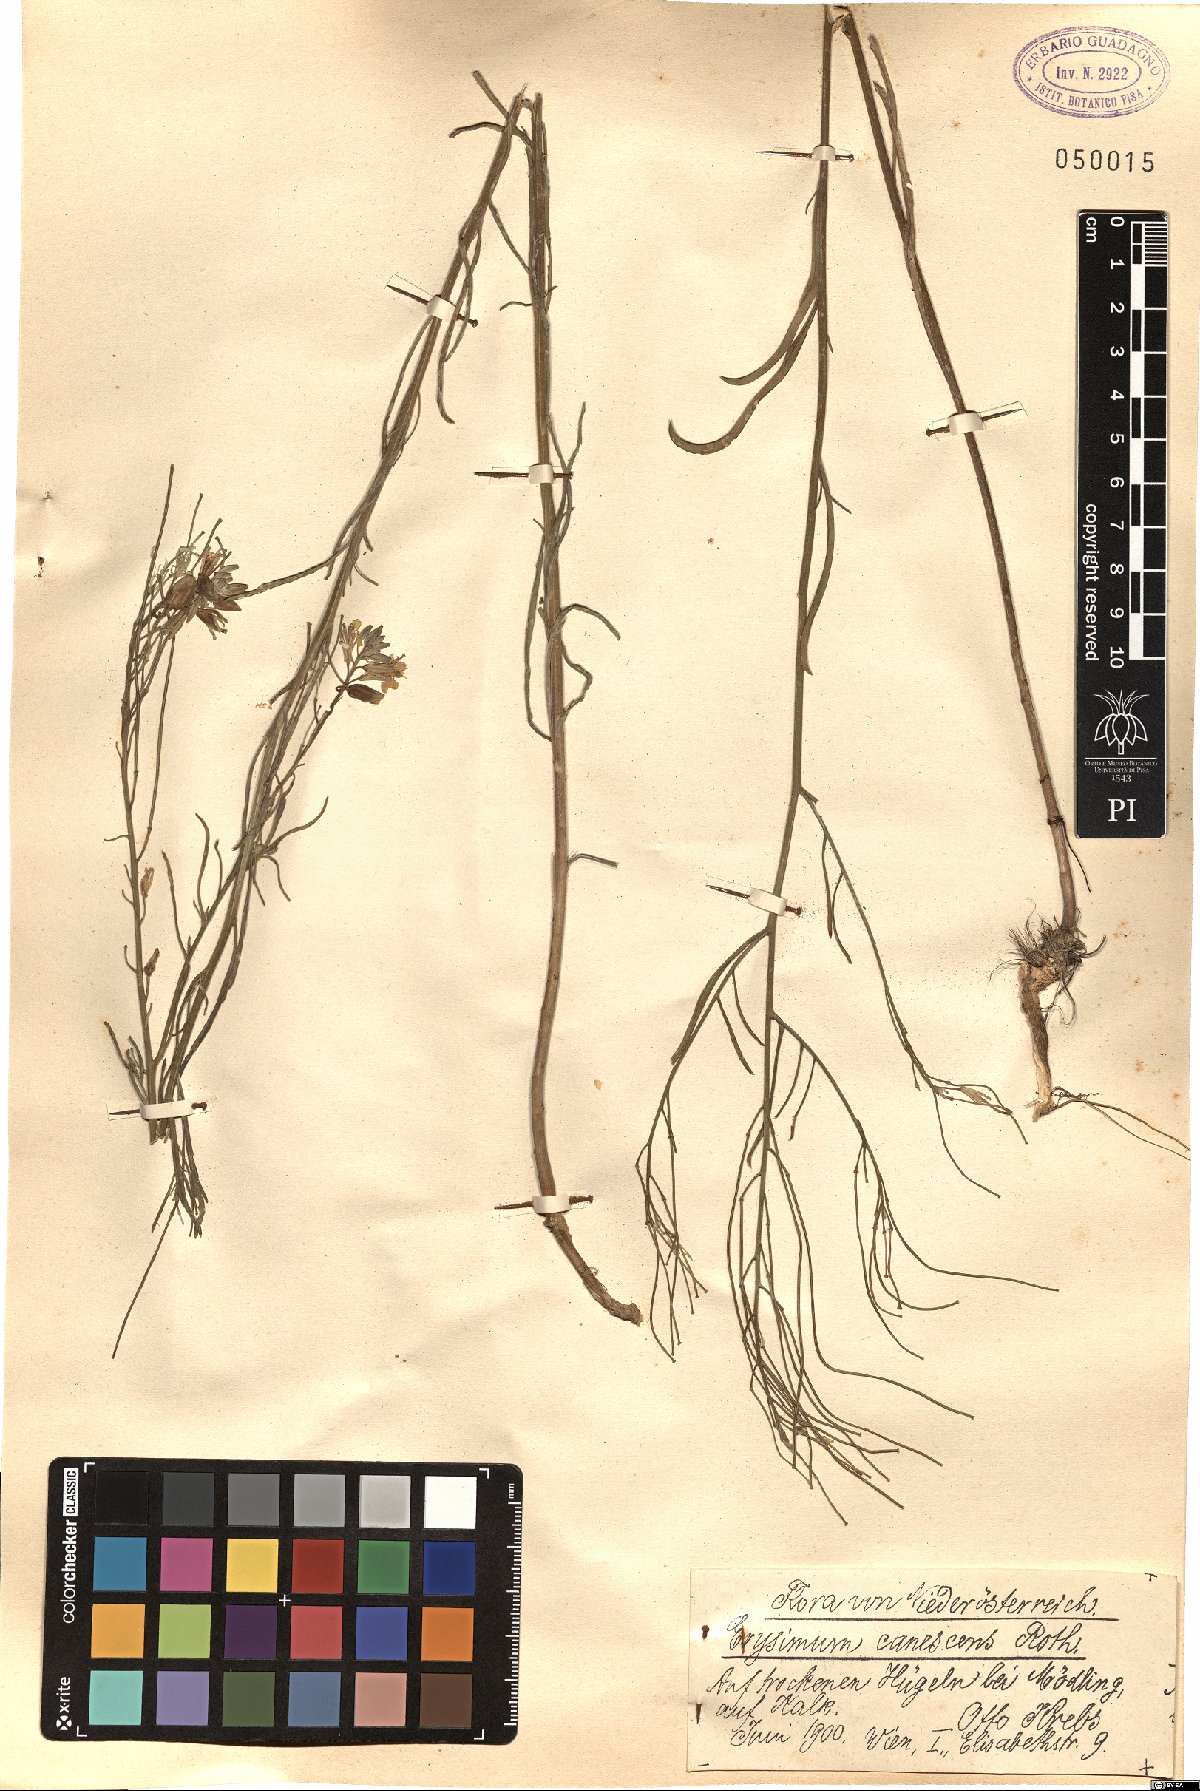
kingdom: Plantae
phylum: Tracheophyta
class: Magnoliopsida
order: Brassicales
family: Brassicaceae
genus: Erysimum
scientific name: Erysimum canescens
